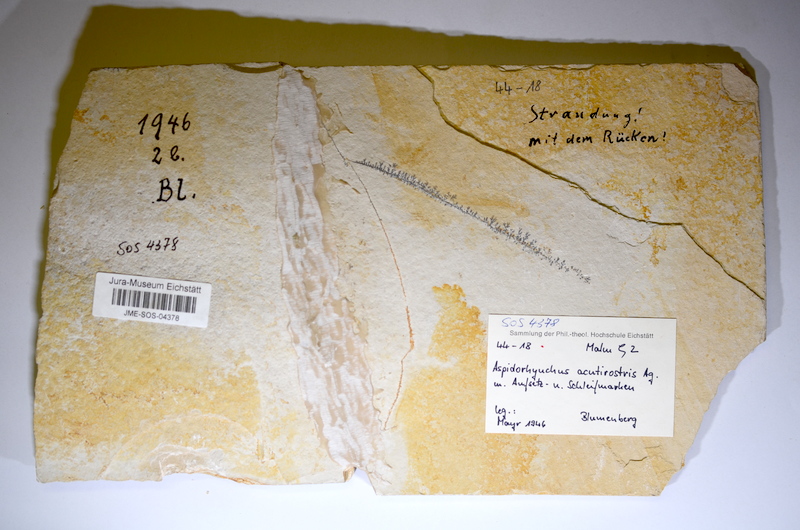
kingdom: Animalia
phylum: Chordata
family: Aspidorhynchidae
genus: Aspidorhynchus
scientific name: Aspidorhynchus acutirostris
